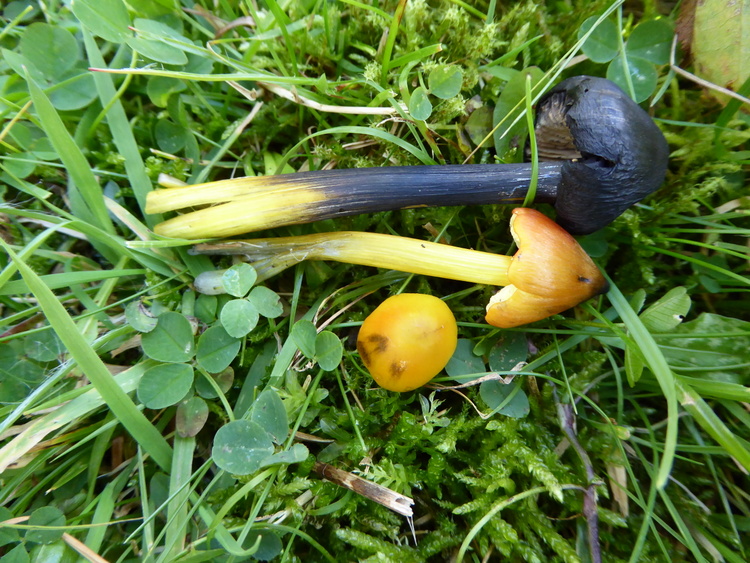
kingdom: Fungi
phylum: Basidiomycota
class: Agaricomycetes
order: Agaricales
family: Hygrophoraceae
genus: Hygrocybe
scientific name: Hygrocybe conica
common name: kegle-vokshat
